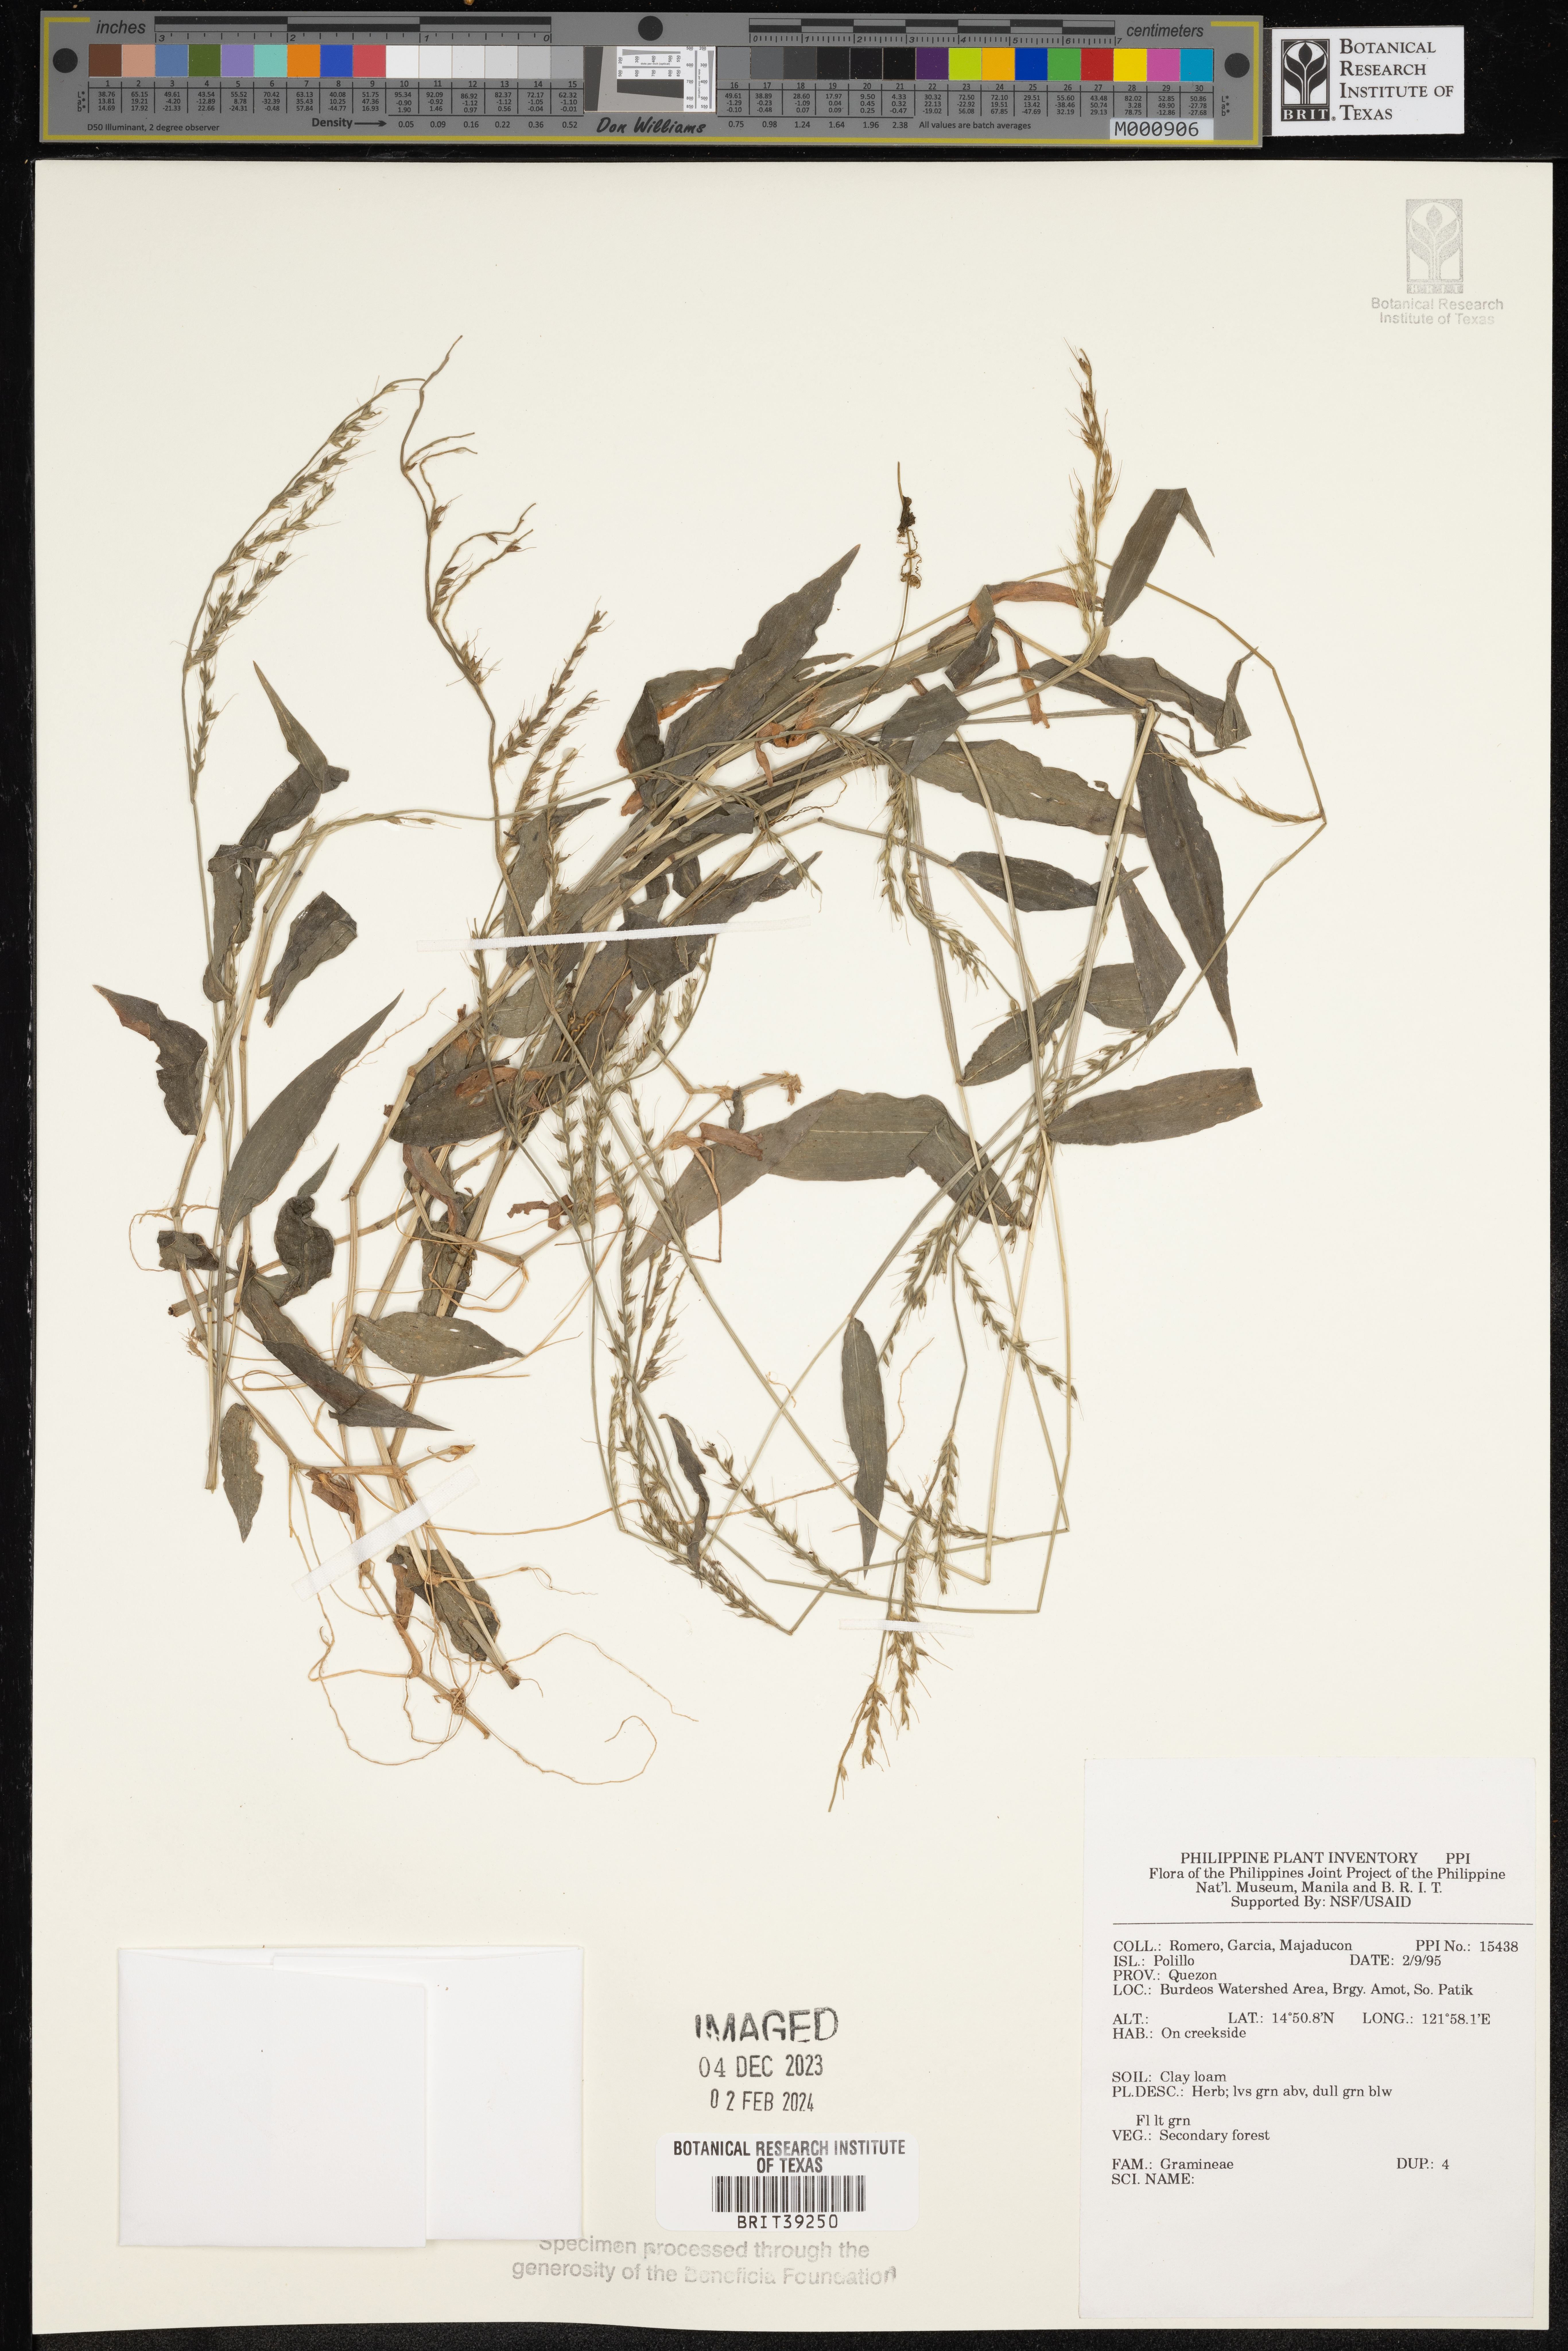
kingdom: Plantae
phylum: Tracheophyta
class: Liliopsida
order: Poales
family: Poaceae
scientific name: Poaceae
